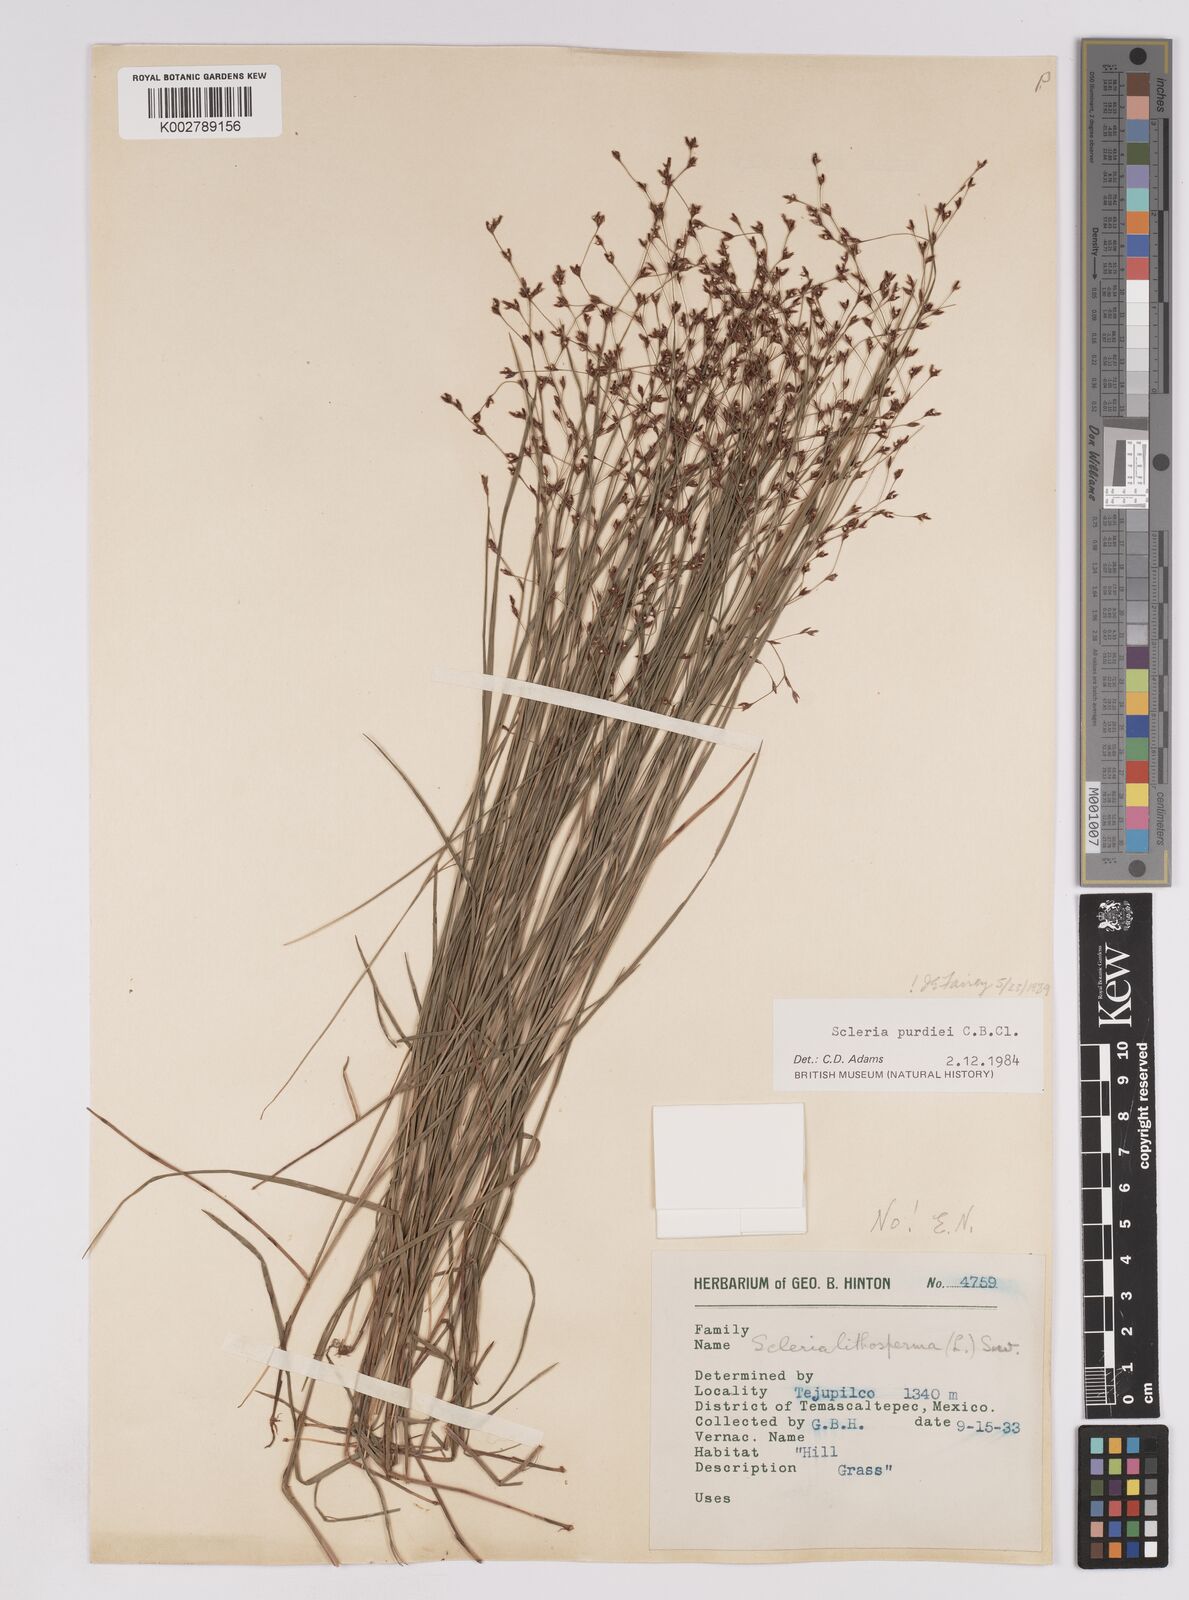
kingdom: Plantae
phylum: Tracheophyta
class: Liliopsida
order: Poales
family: Cyperaceae
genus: Scleria
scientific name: Scleria purdiei
